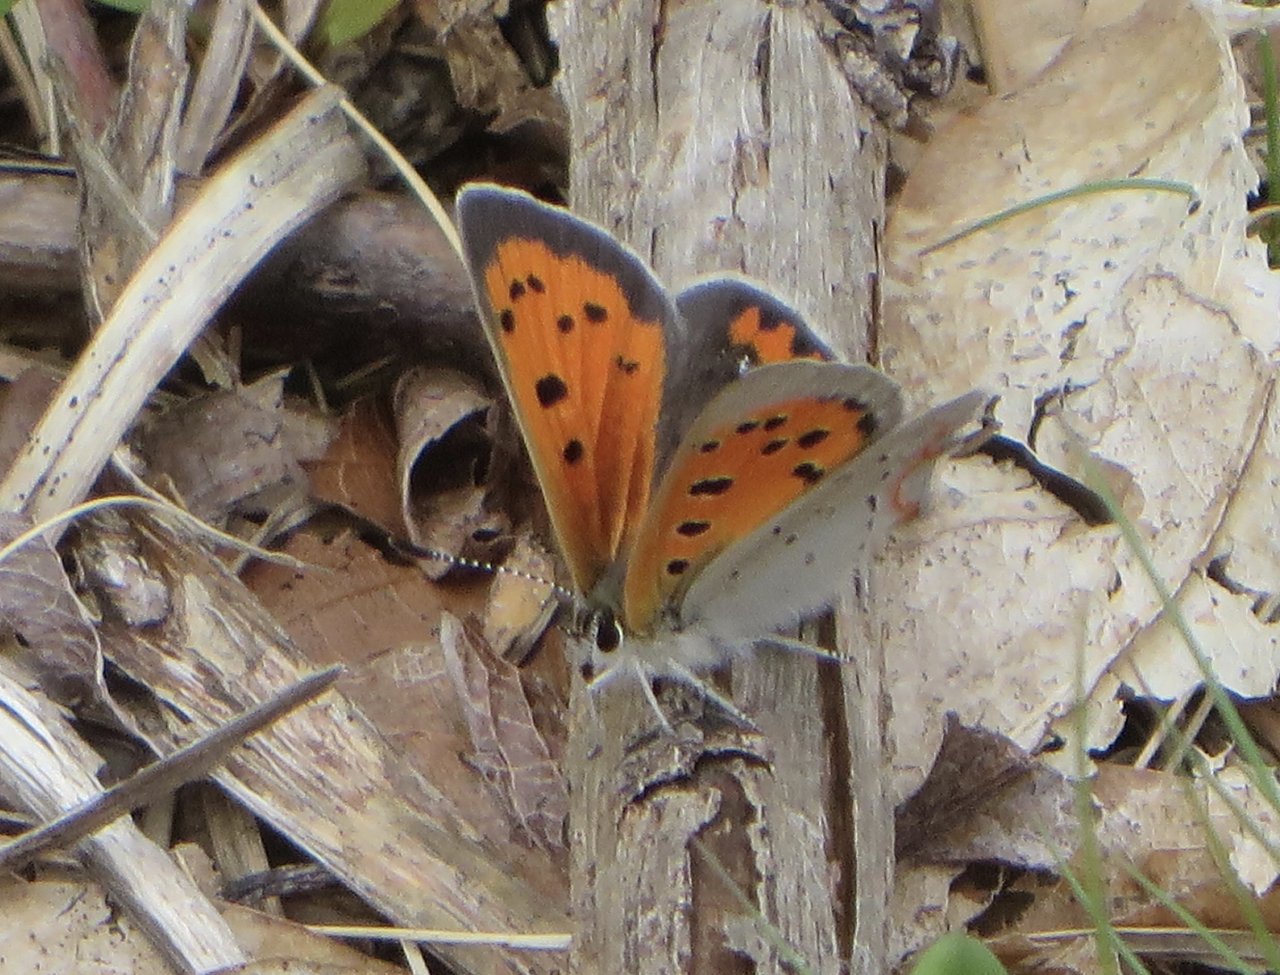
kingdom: Animalia
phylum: Arthropoda
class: Insecta
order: Lepidoptera
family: Lycaenidae
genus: Lycaena
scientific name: Lycaena phlaeas
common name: American Copper
